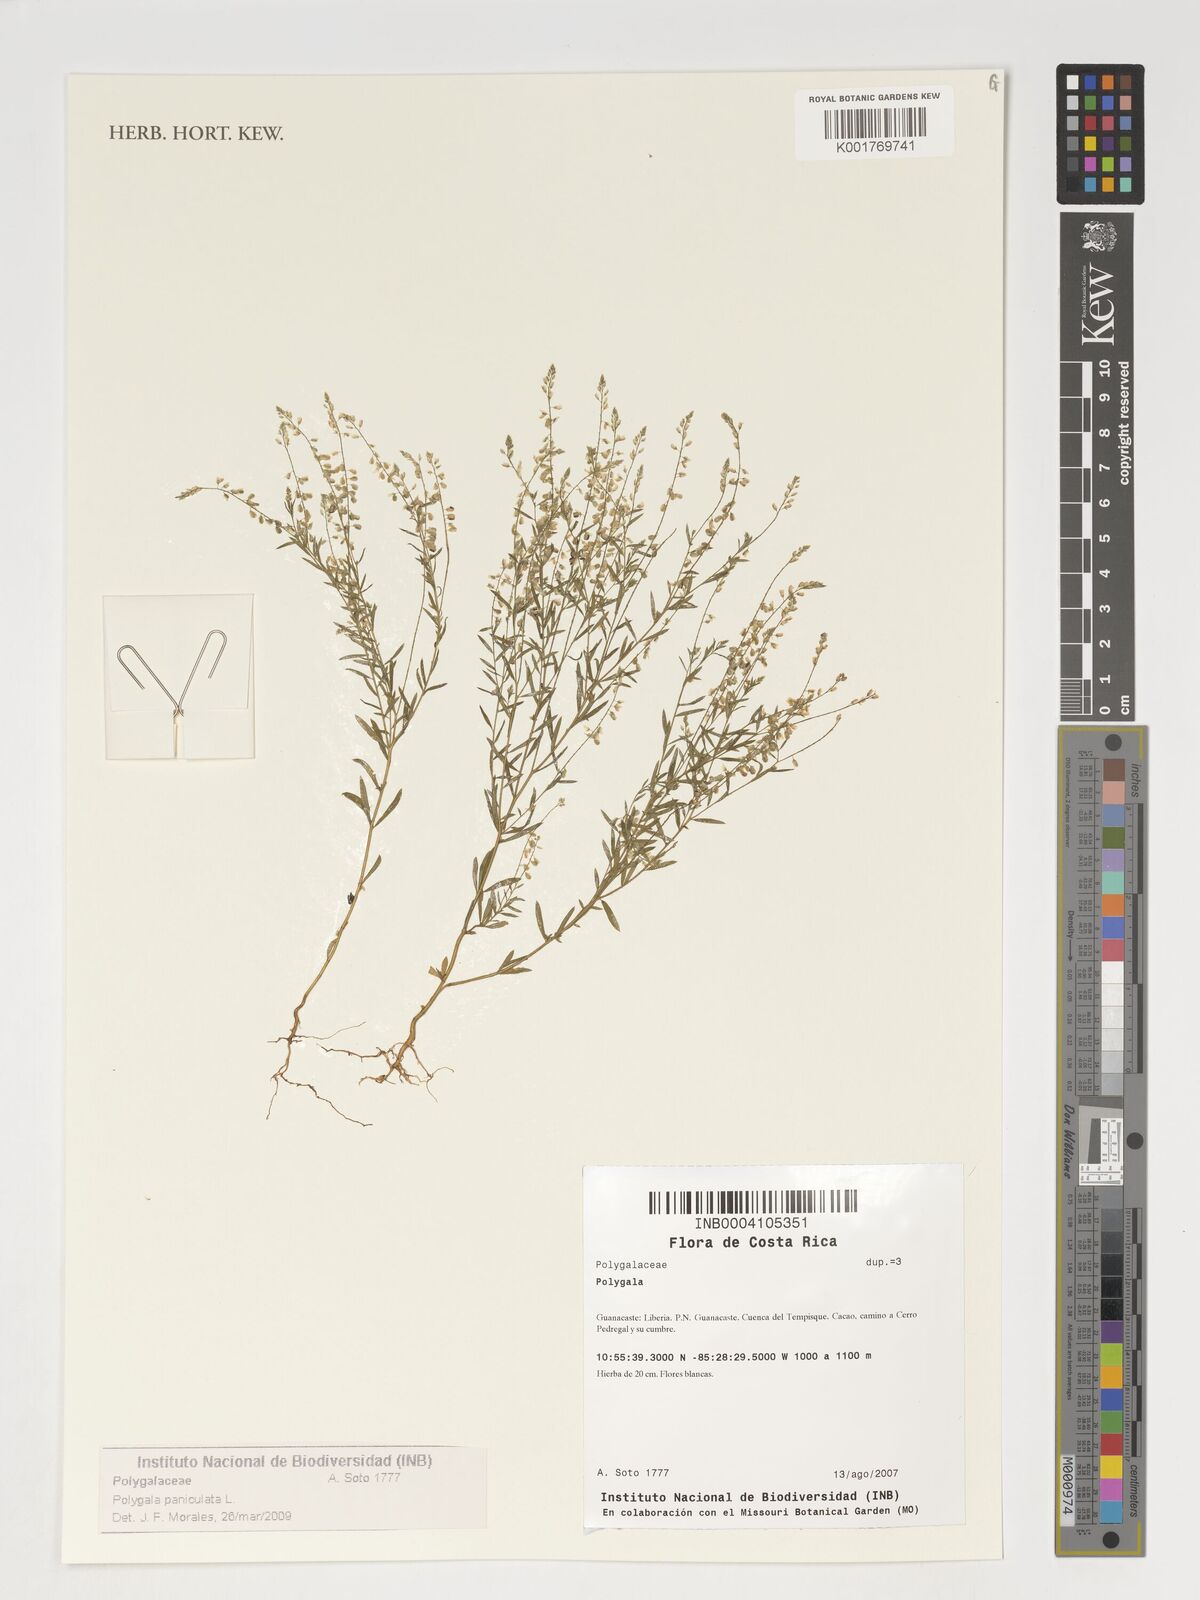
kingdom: Plantae
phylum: Tracheophyta
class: Magnoliopsida
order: Fabales
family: Polygalaceae
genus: Polygala
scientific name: Polygala paniculata
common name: Orosne
